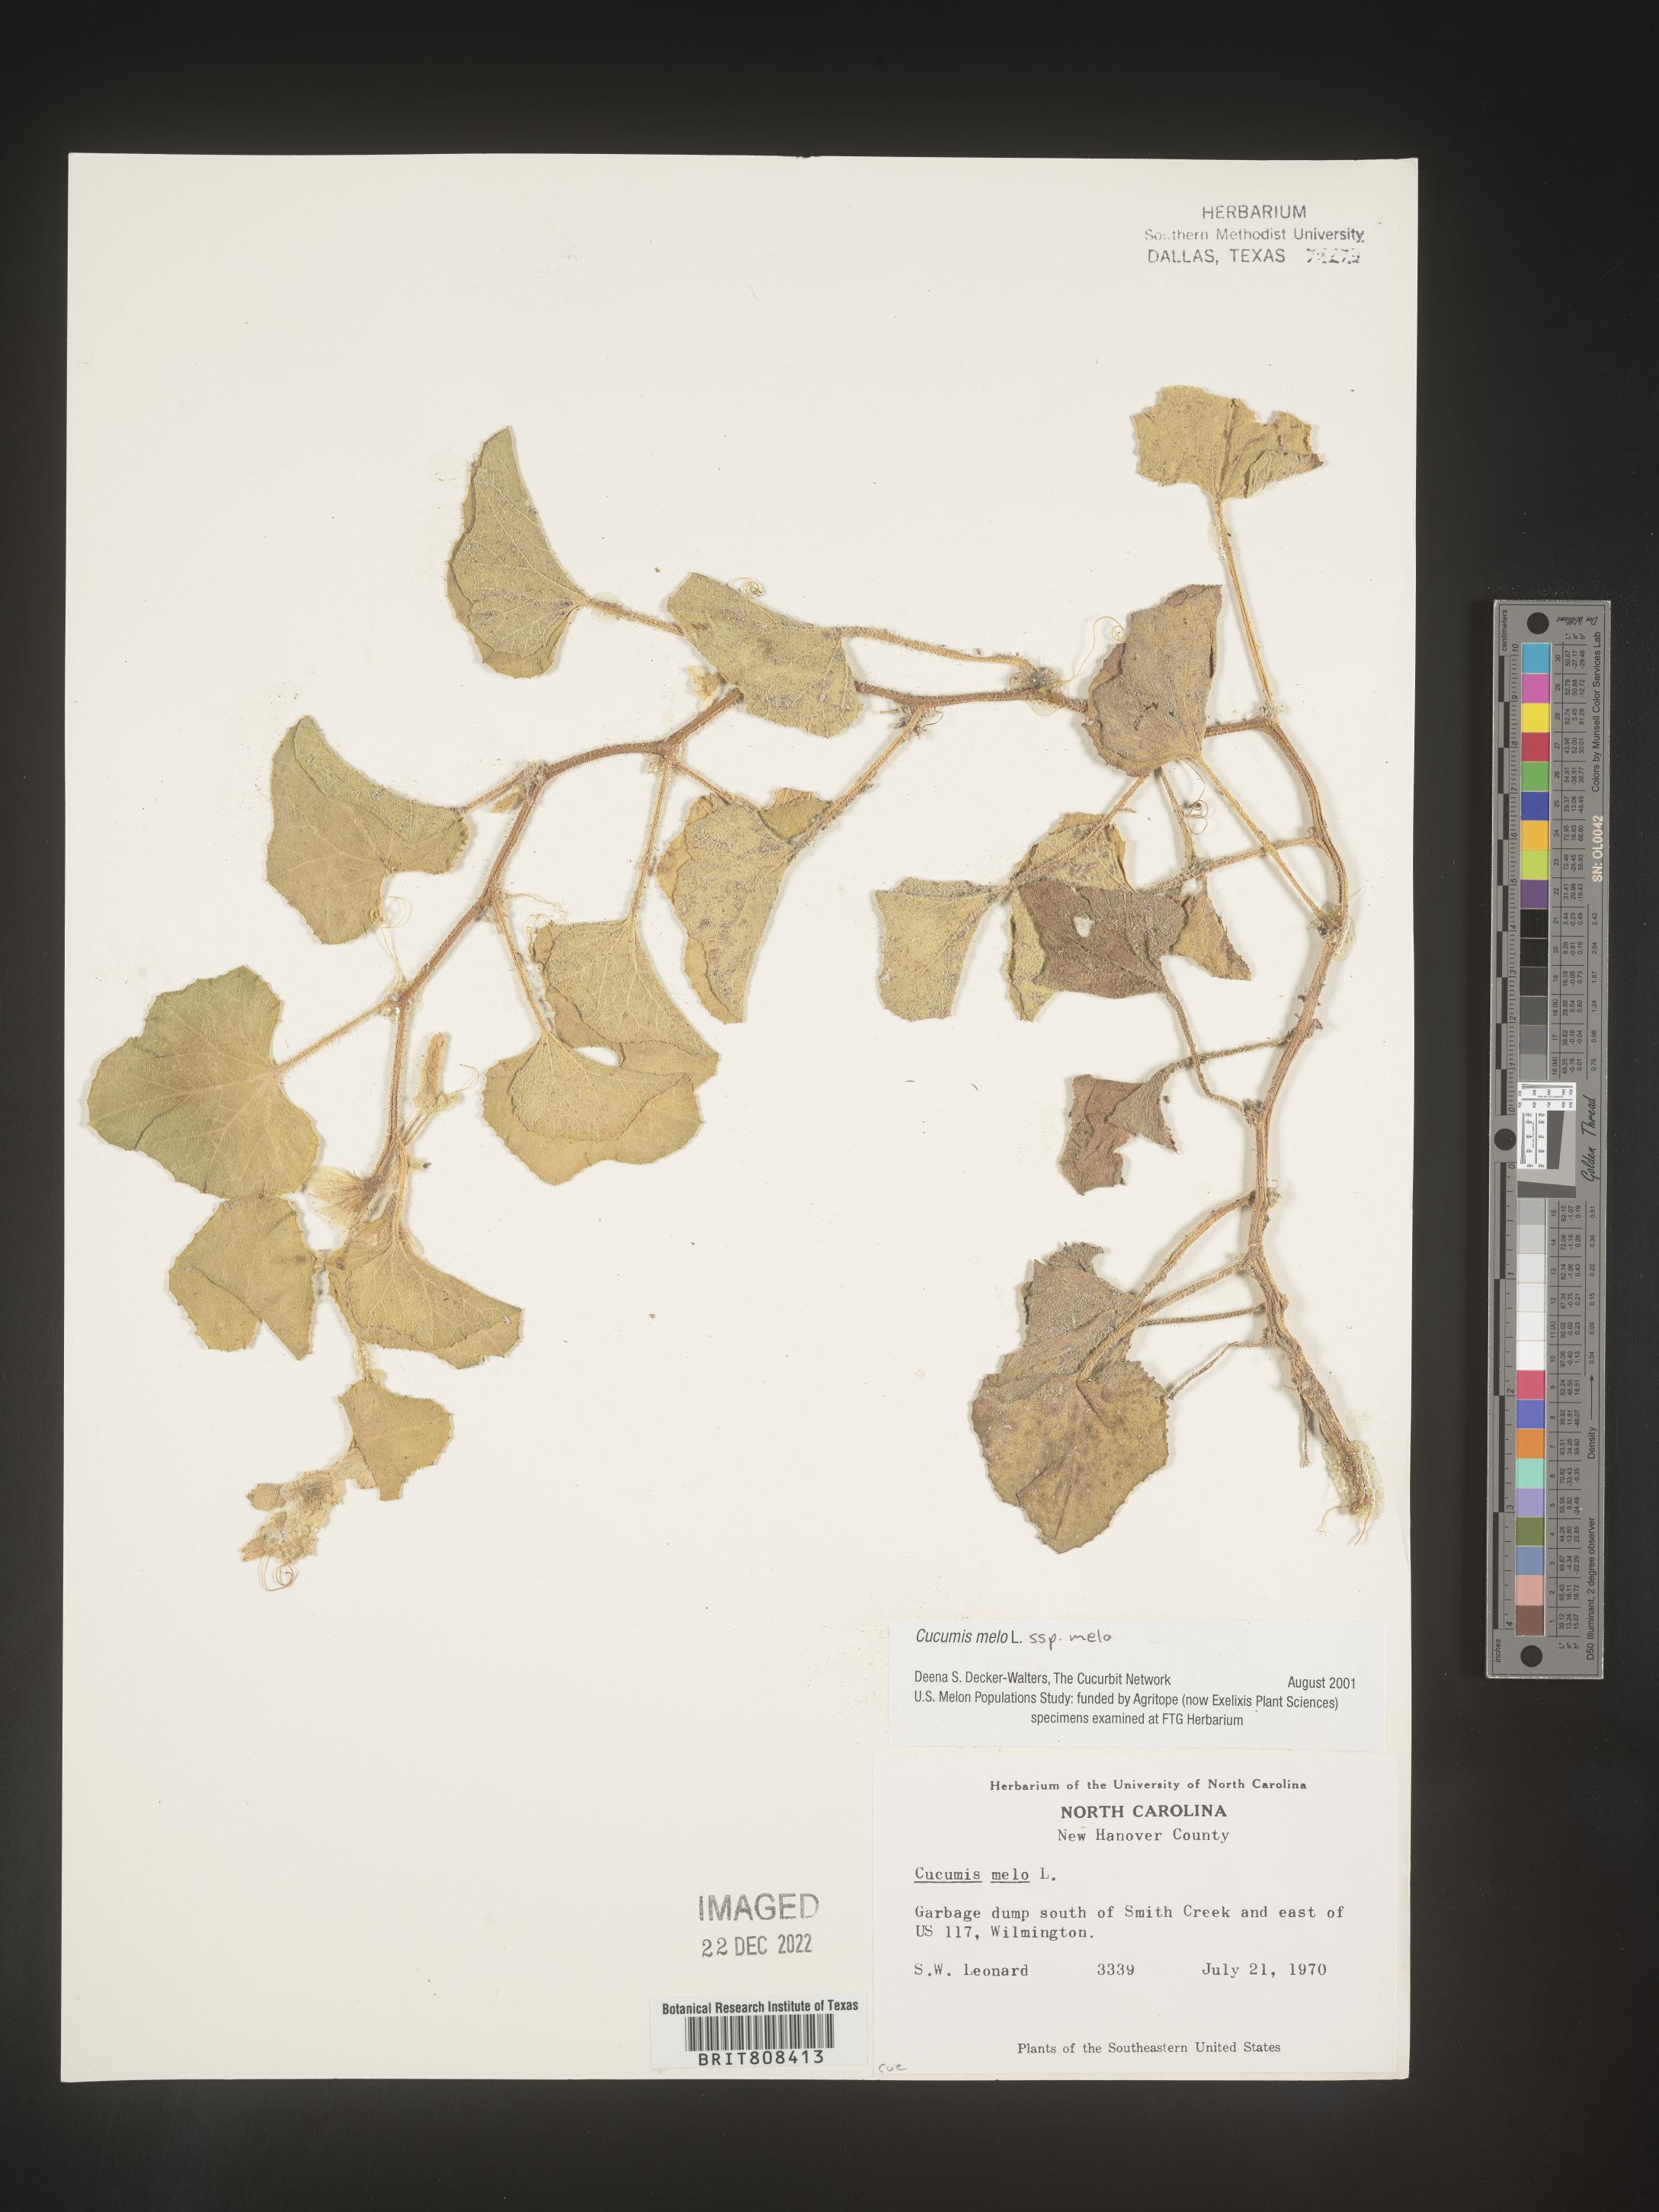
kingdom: Plantae
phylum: Tracheophyta
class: Magnoliopsida
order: Cucurbitales
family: Cucurbitaceae
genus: Cucumis
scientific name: Cucumis
